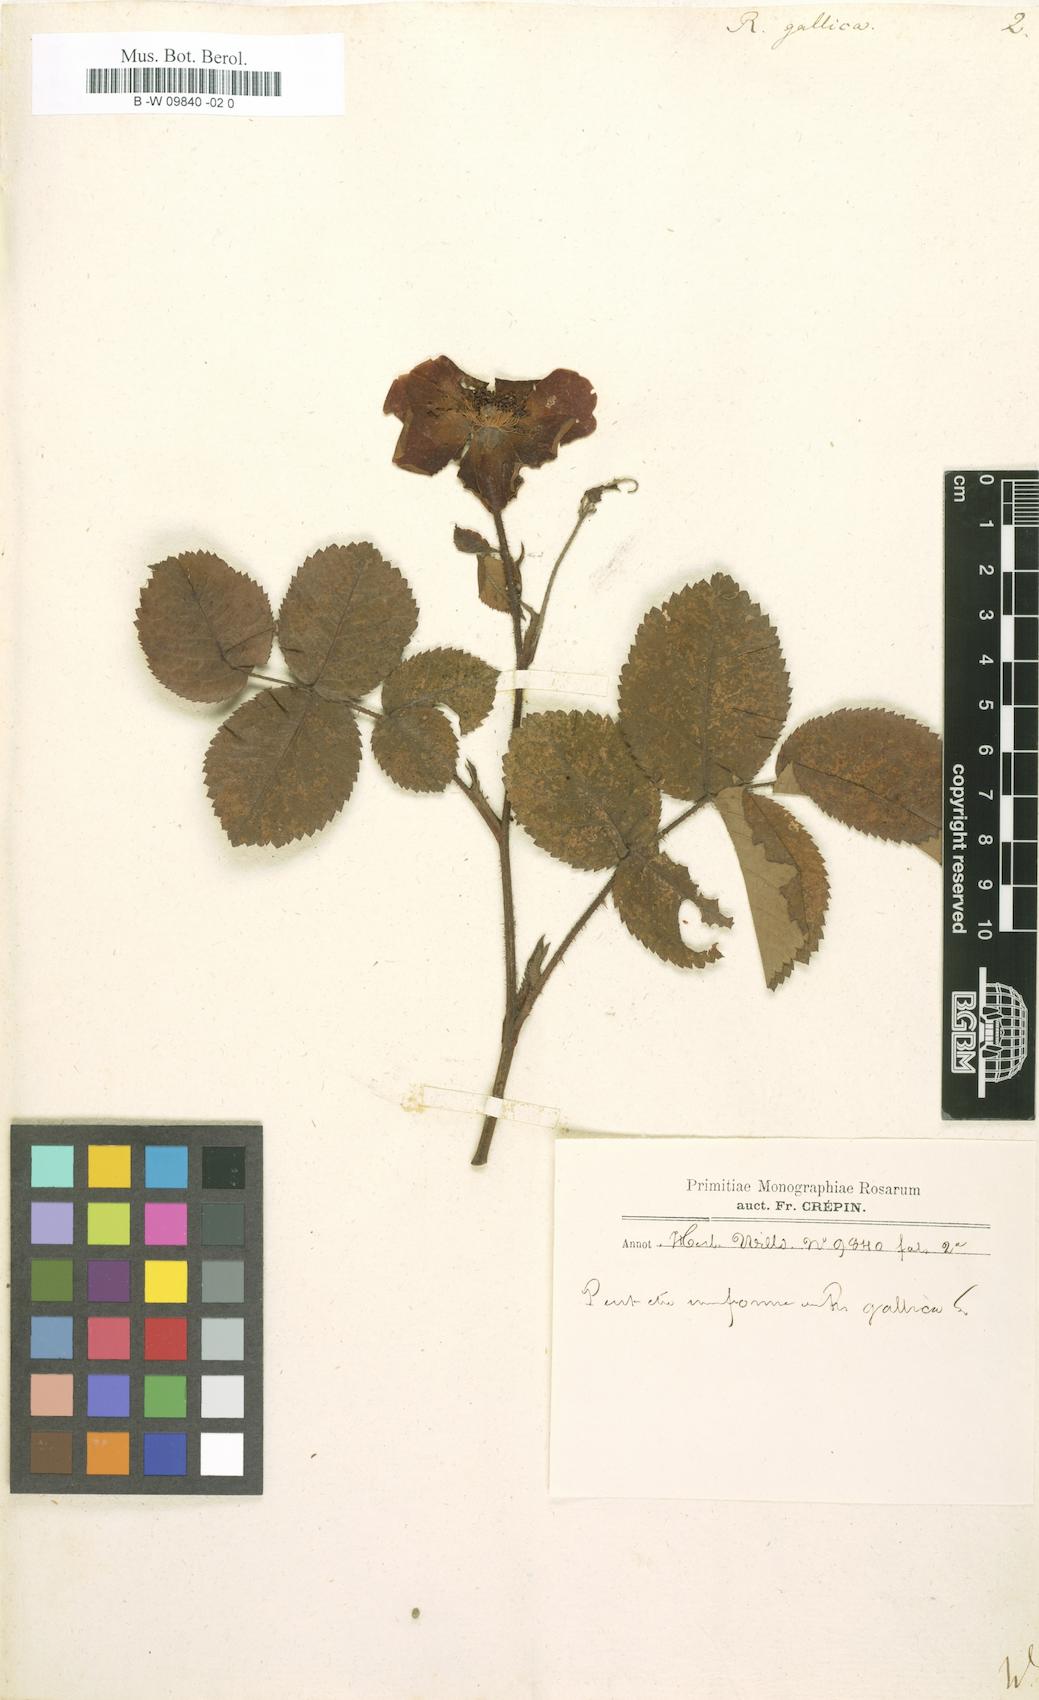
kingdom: Plantae
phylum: Tracheophyta
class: Magnoliopsida
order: Rosales
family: Rosaceae
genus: Rosa
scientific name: Rosa gallica
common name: French rose
